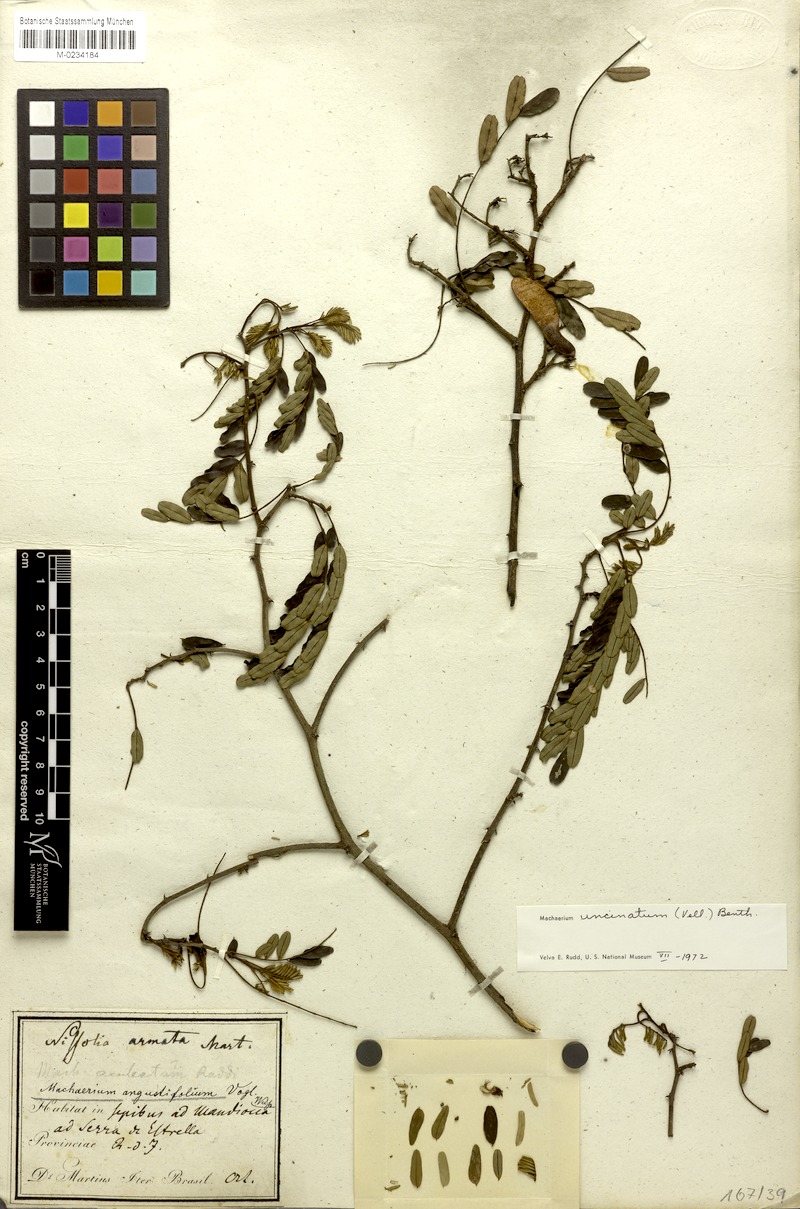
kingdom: Plantae
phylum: Tracheophyta
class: Magnoliopsida
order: Fabales
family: Fabaceae
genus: Nissolia
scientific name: Nissolia
